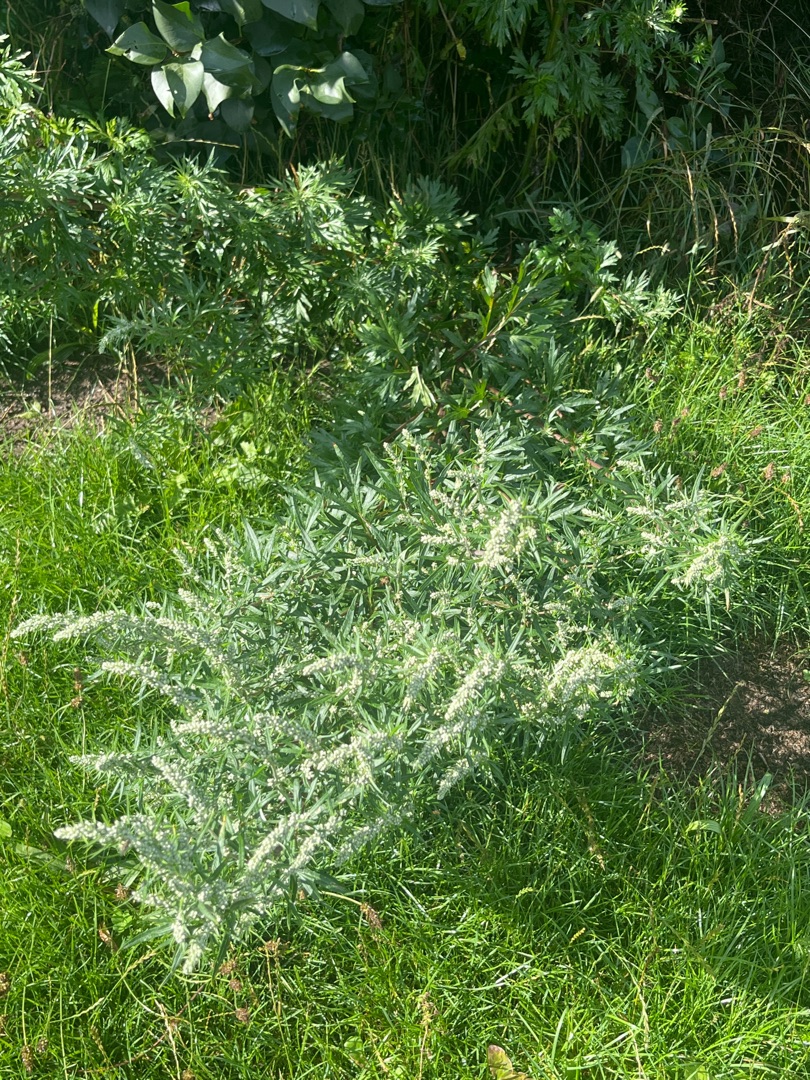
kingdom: Plantae
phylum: Tracheophyta
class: Magnoliopsida
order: Asterales
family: Asteraceae
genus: Artemisia
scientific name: Artemisia vulgaris
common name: Grå-bynke
